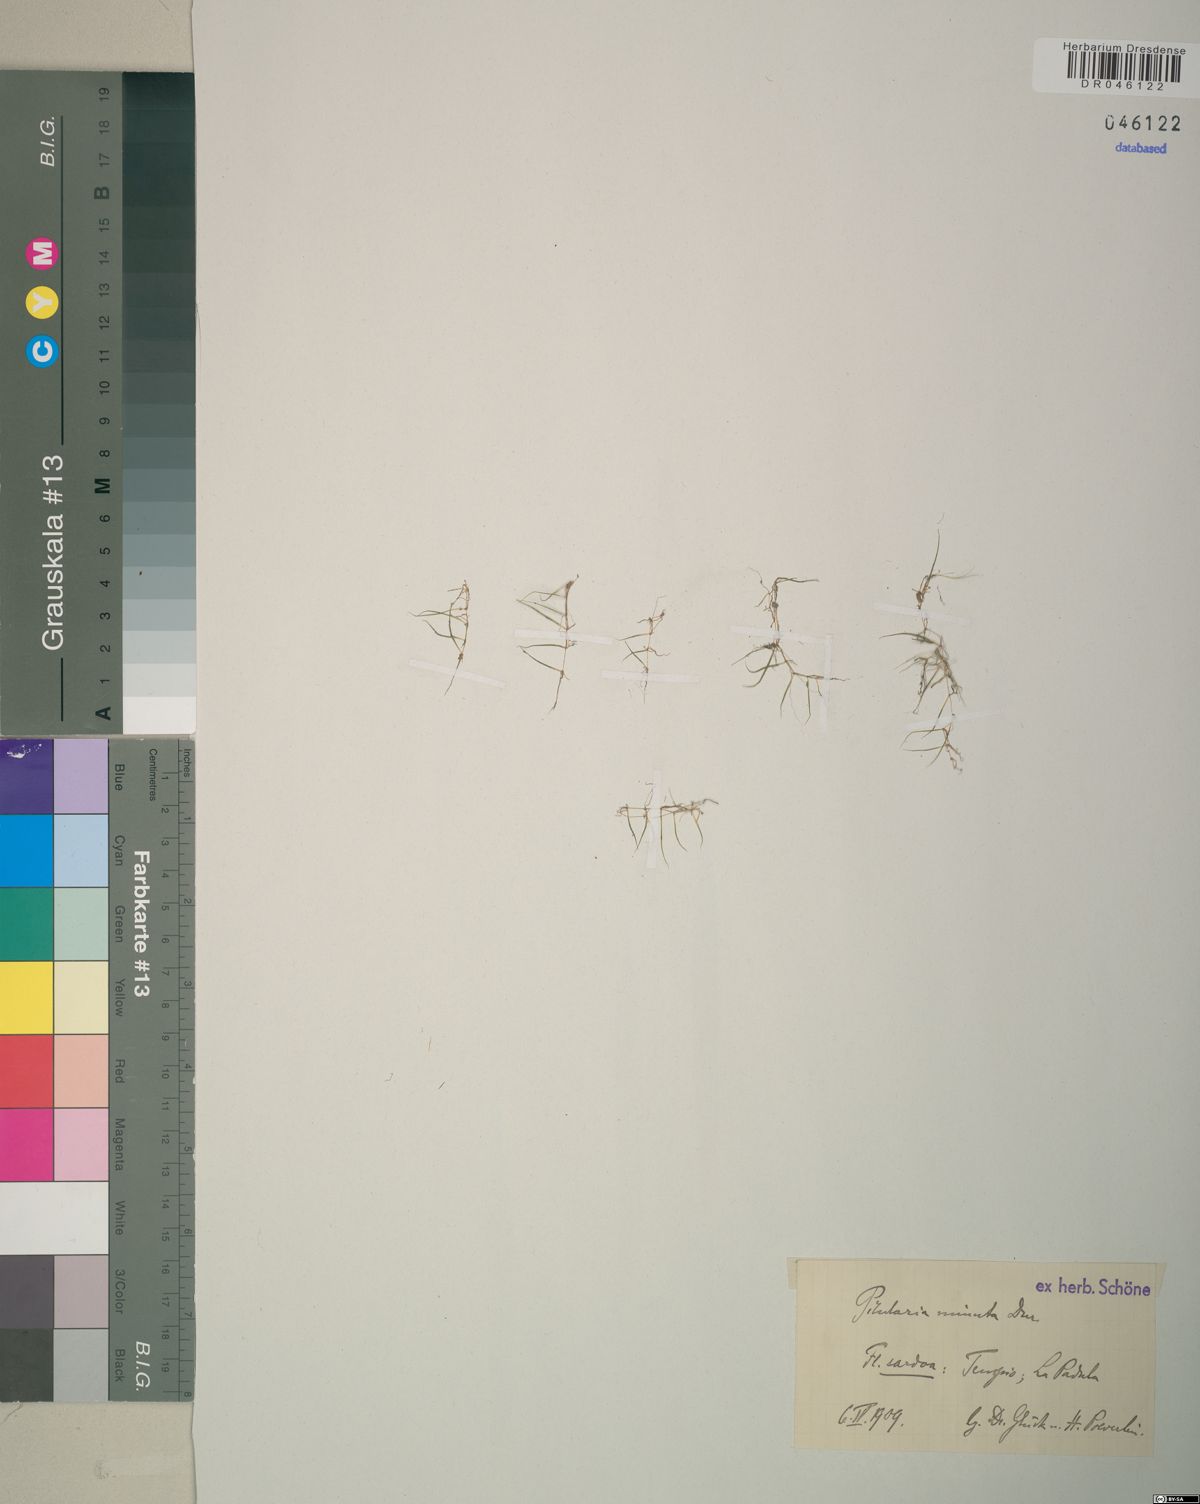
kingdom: Plantae
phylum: Tracheophyta
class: Polypodiopsida
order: Salviniales
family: Marsileaceae
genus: Pilularia
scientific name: Pilularia minuta
